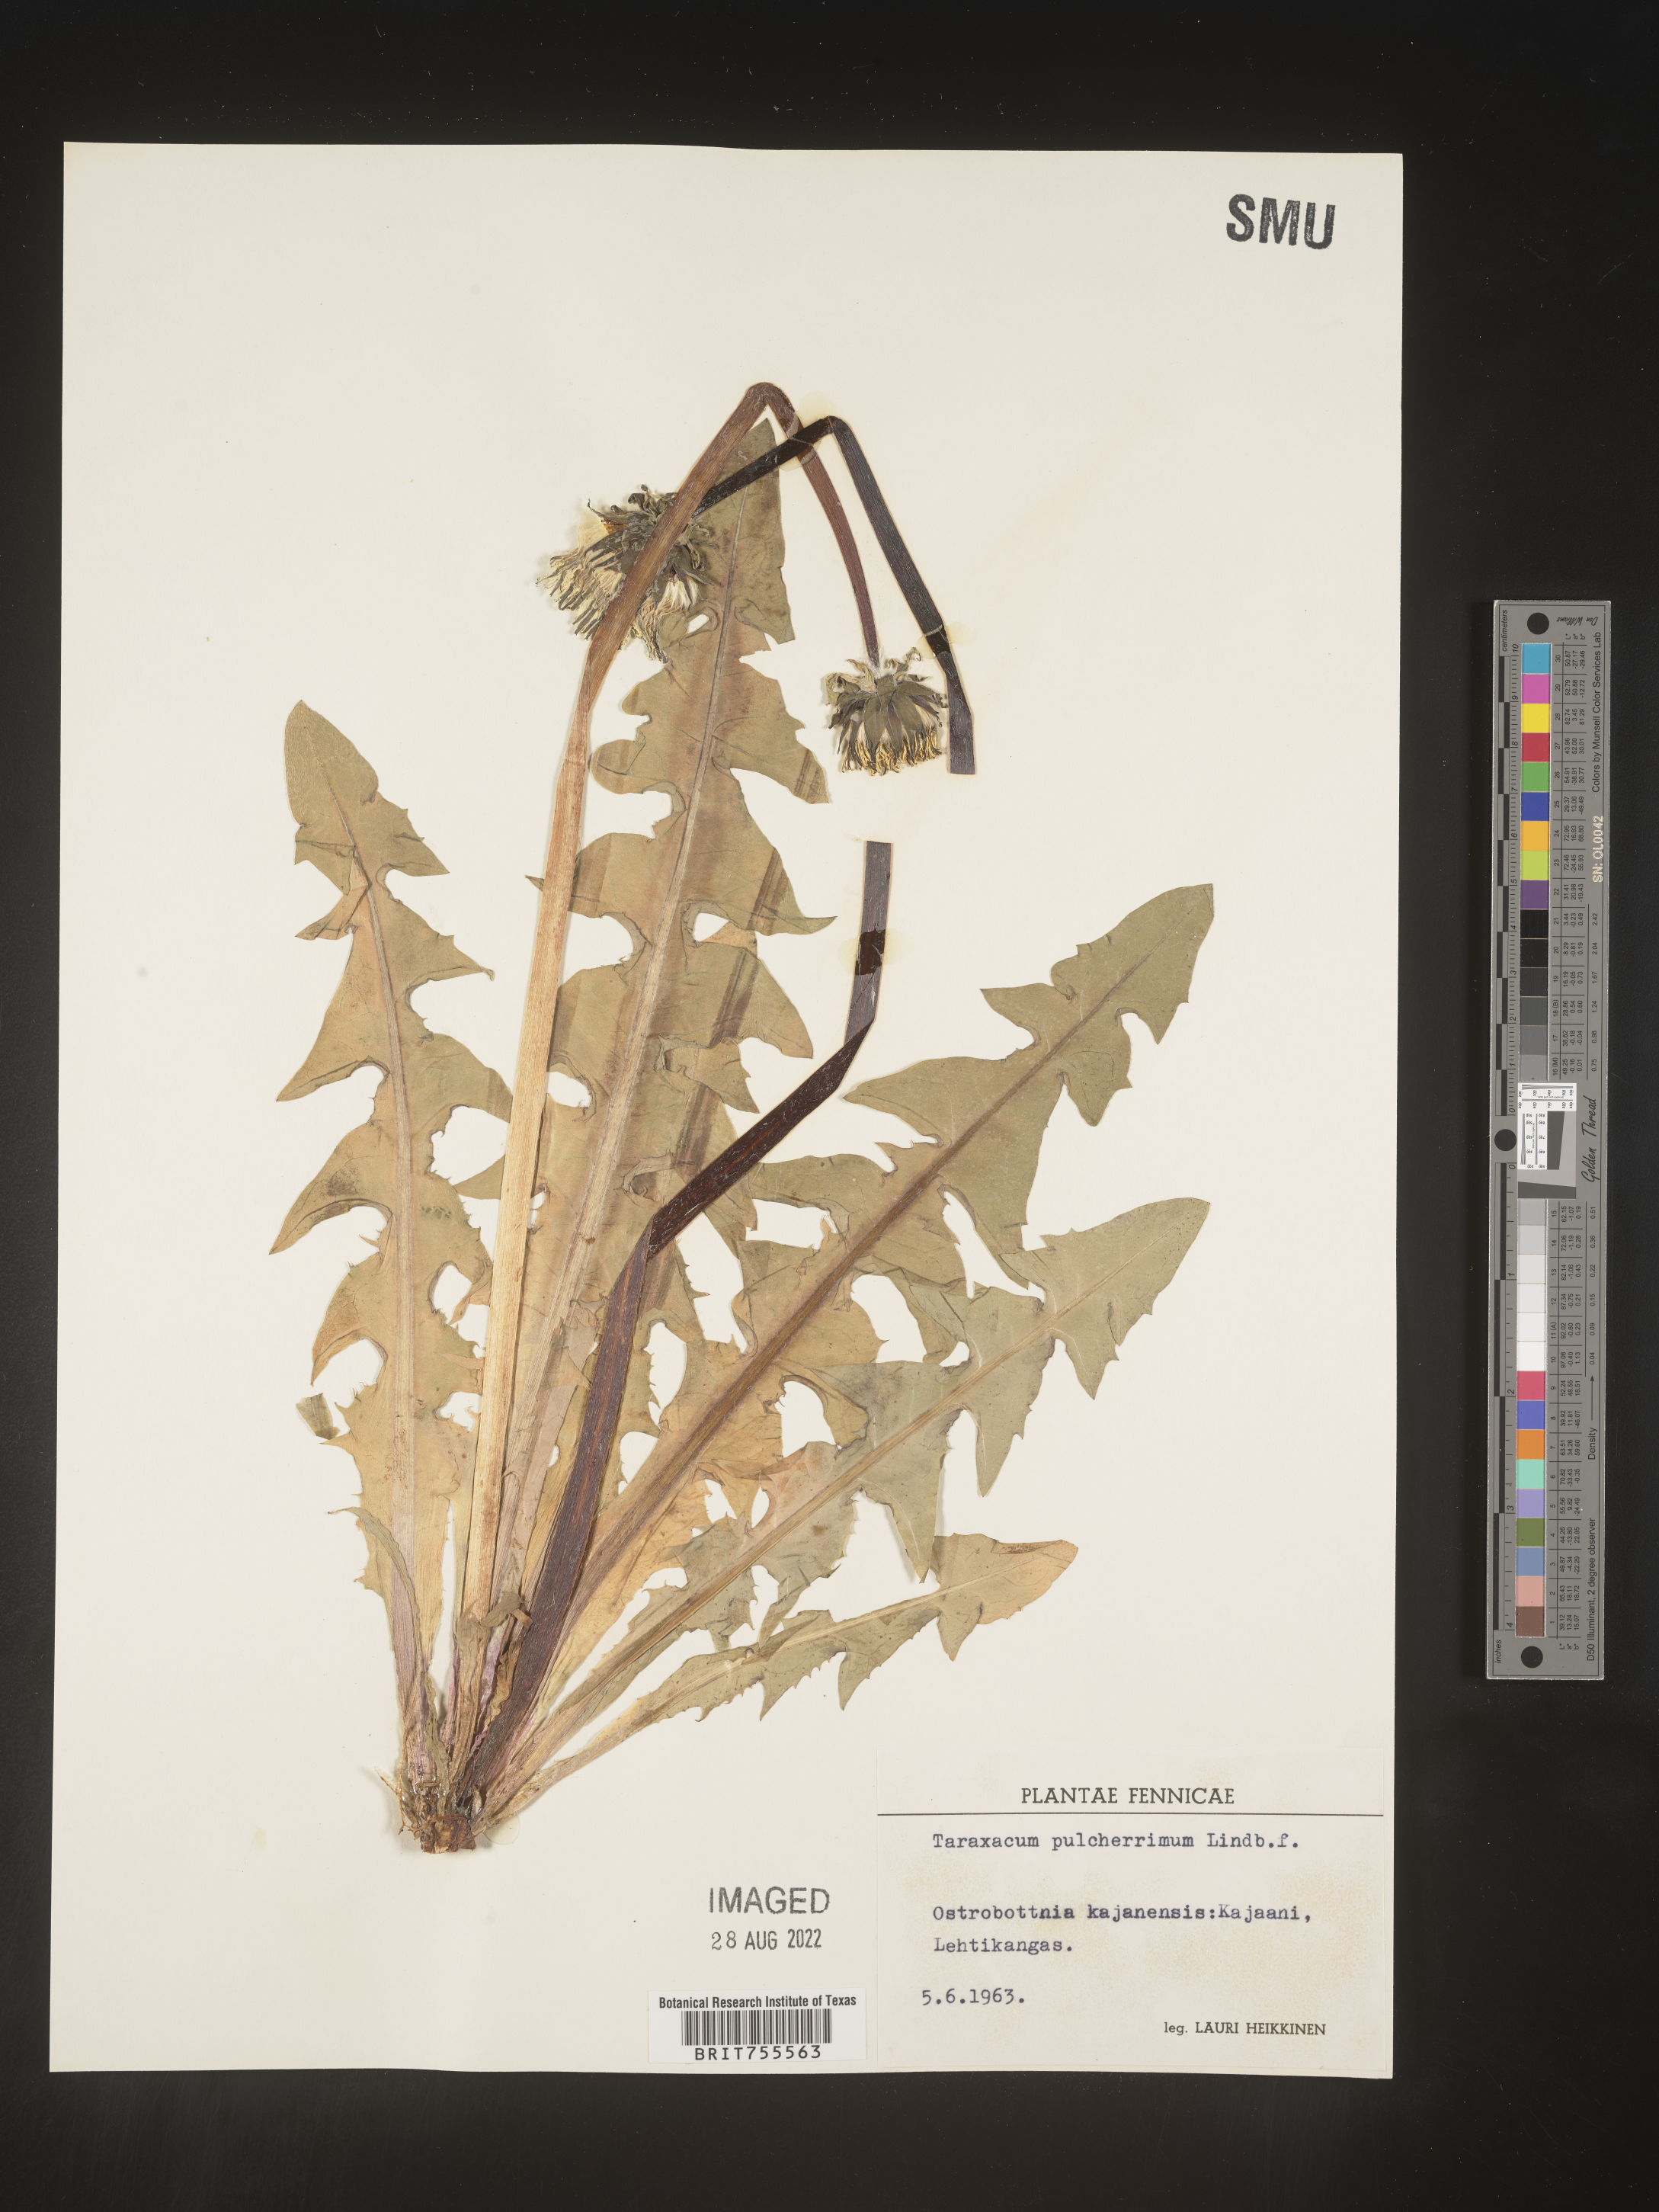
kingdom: Plantae
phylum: Tracheophyta
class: Magnoliopsida
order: Asterales
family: Asteraceae
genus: Taraxacum
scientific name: Taraxacum
